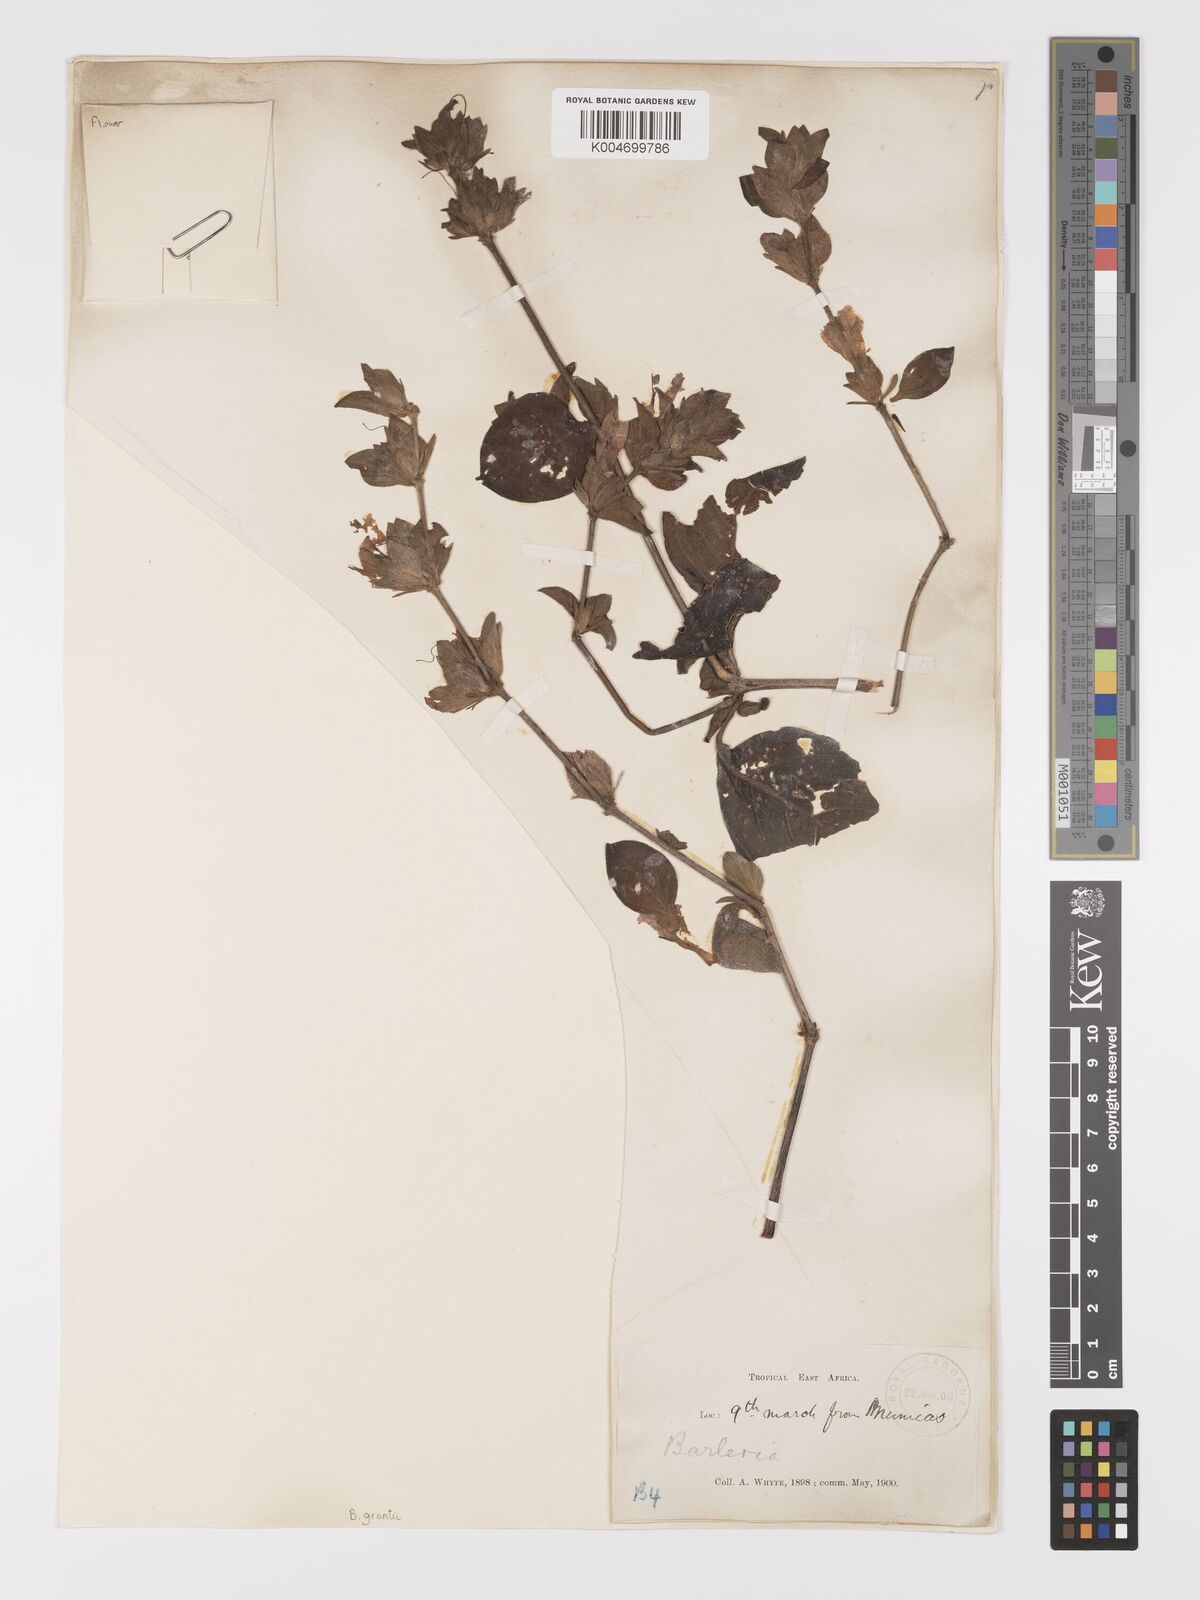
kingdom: Plantae
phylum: Tracheophyta
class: Magnoliopsida
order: Lamiales
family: Acanthaceae
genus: Barleria
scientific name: Barleria ventricosa
